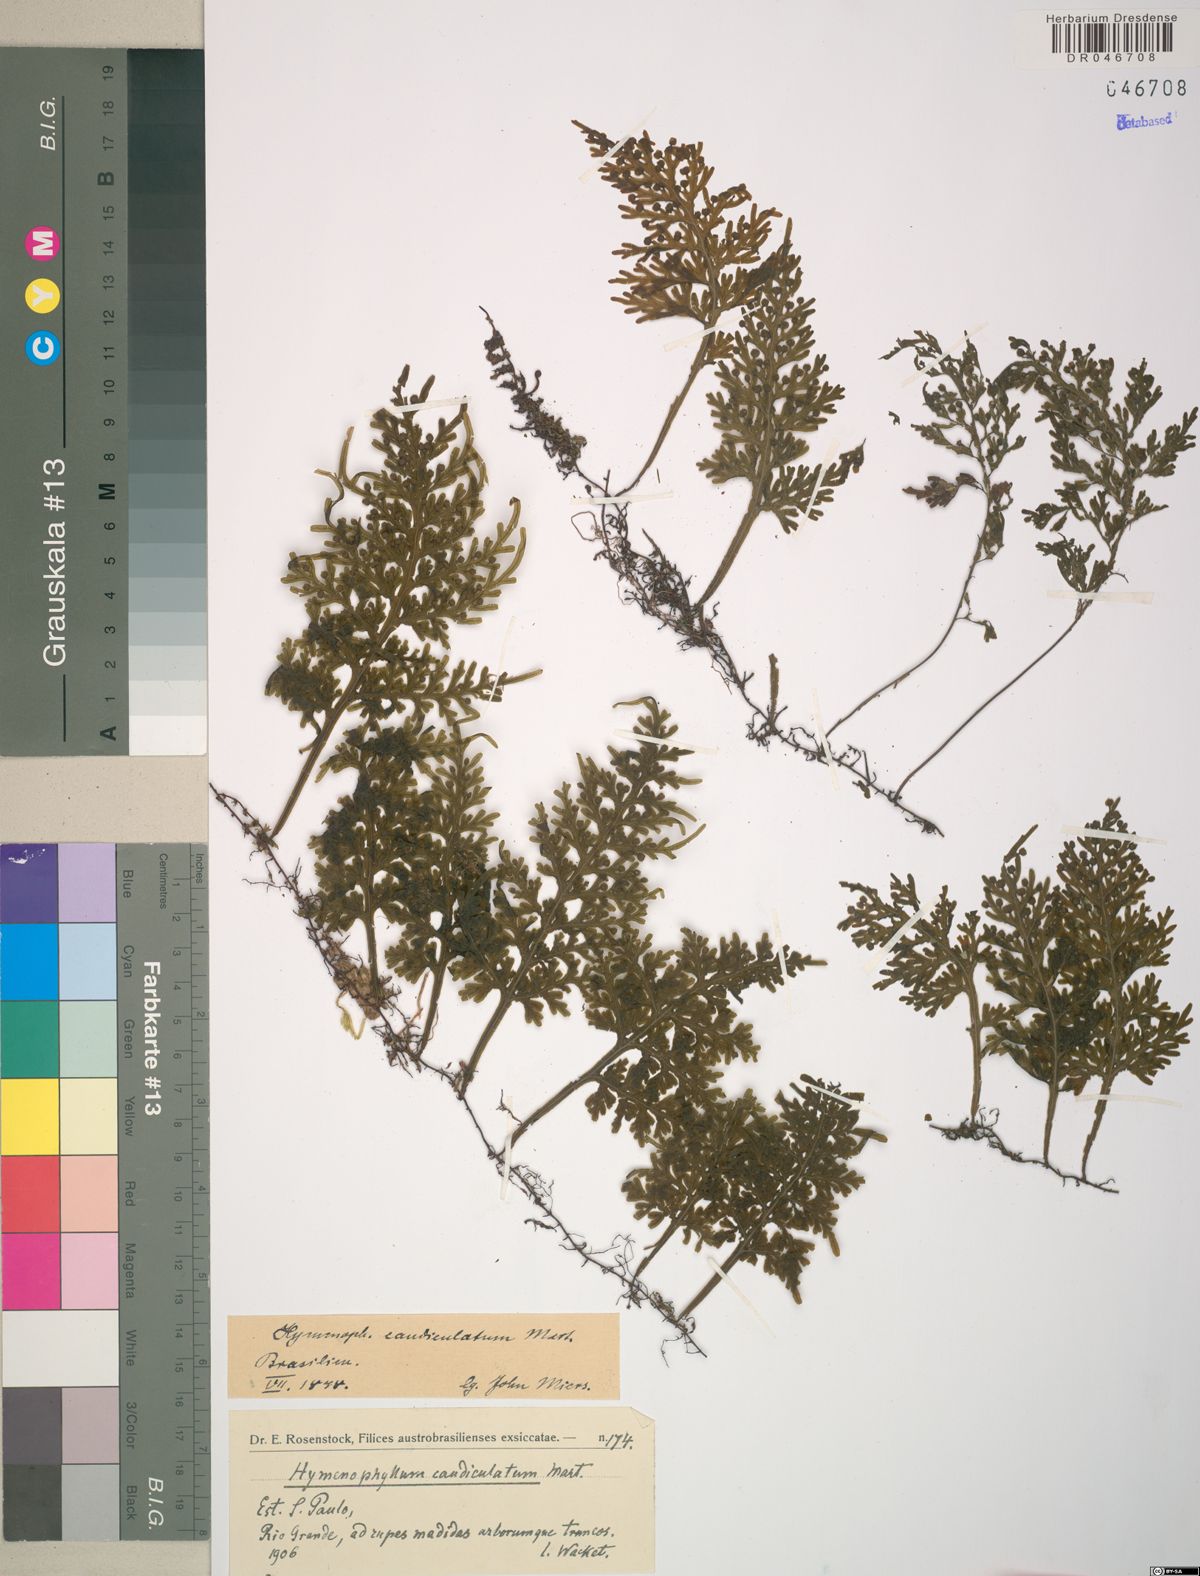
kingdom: Plantae
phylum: Tracheophyta
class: Polypodiopsida
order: Hymenophyllales
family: Hymenophyllaceae
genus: Hymenophyllum
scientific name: Hymenophyllum caudiculatum
